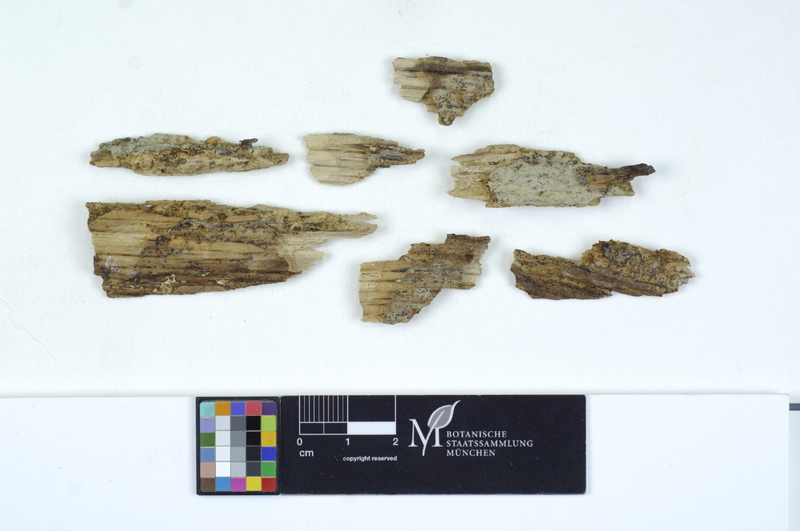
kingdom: Fungi
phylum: Basidiomycota
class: Agaricomycetes
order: Cantharellales
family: Tulasnellaceae
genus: Tulasnella
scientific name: Tulasnella albida
